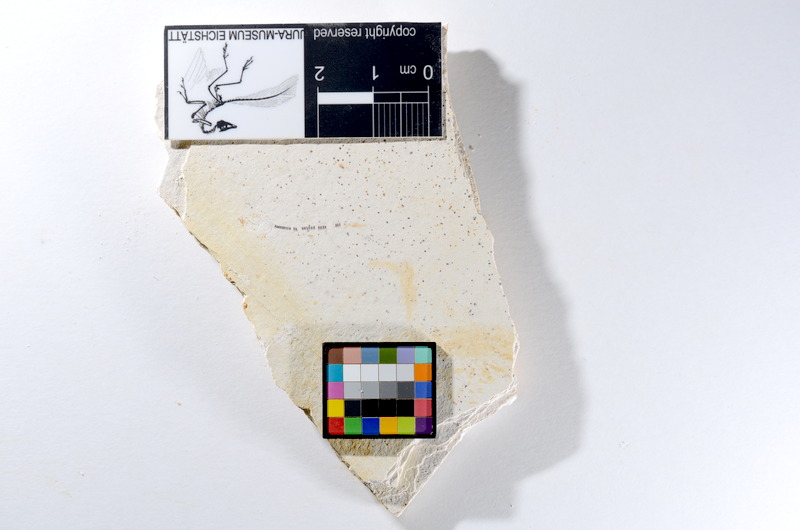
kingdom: Animalia
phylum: Chordata
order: Salmoniformes
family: Orthogonikleithridae
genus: Orthogonikleithrus
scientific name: Orthogonikleithrus hoelli
